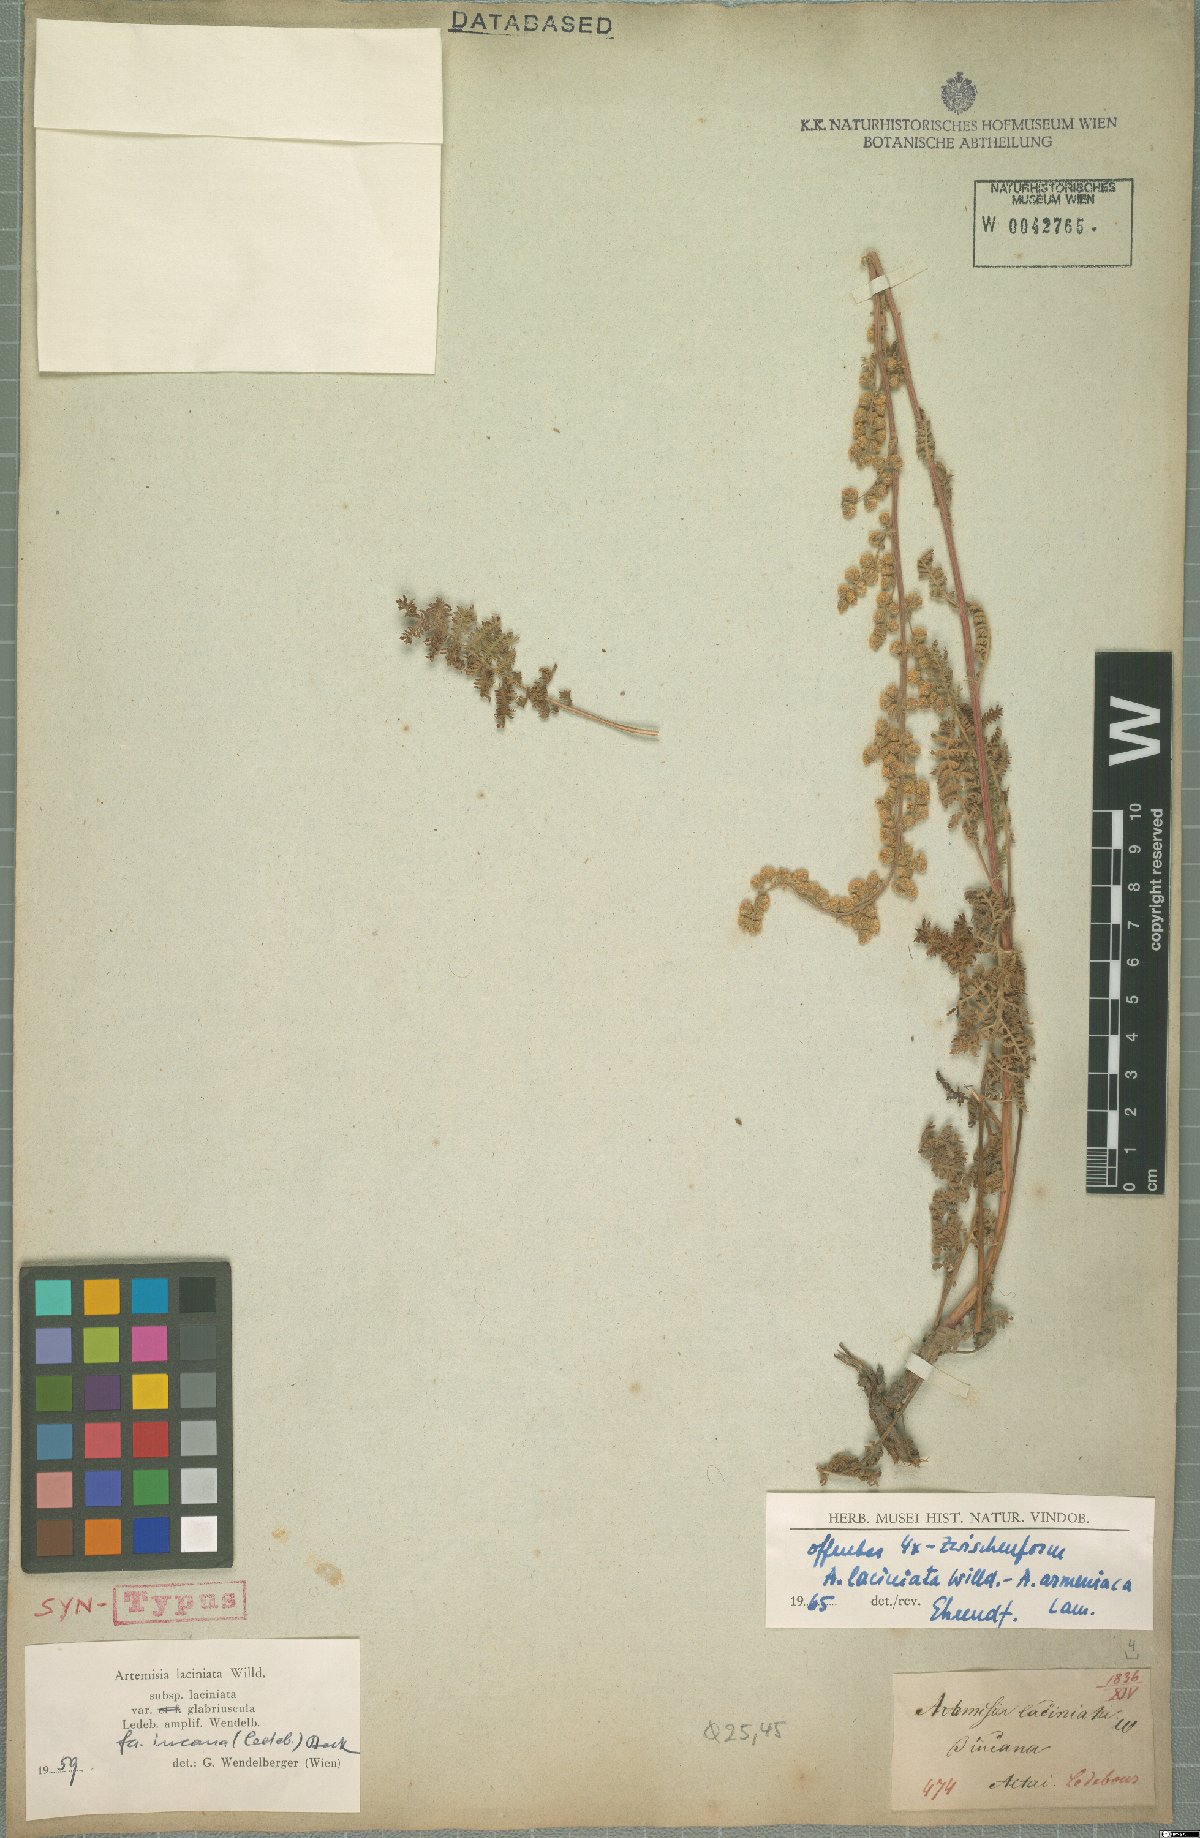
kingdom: Plantae
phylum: Tracheophyta
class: Magnoliopsida
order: Asterales
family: Asteraceae
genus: Artemisia
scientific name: Artemisia laciniata
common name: Siberian wormwood
